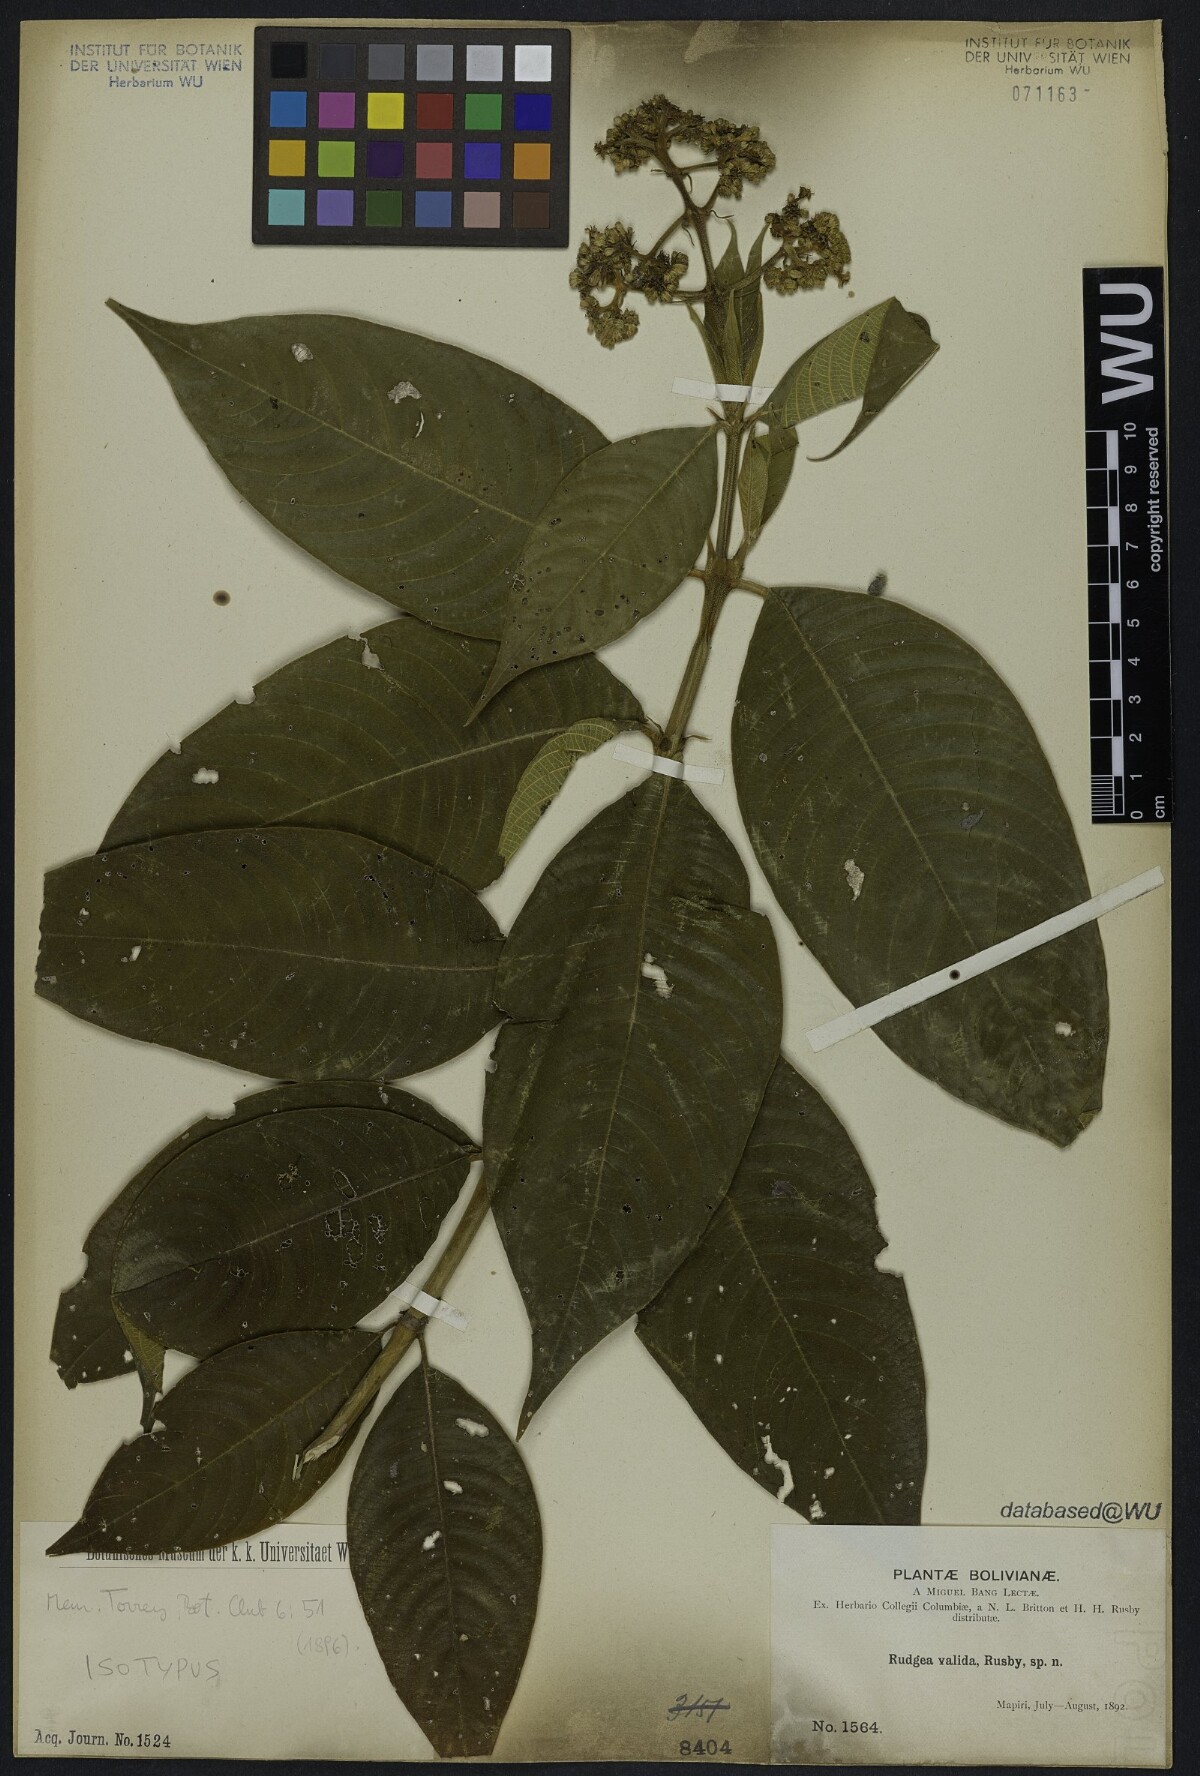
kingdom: Plantae
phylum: Tracheophyta
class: Magnoliopsida
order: Gentianales
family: Rubiaceae
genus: Palicourea
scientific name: Palicourea valida
